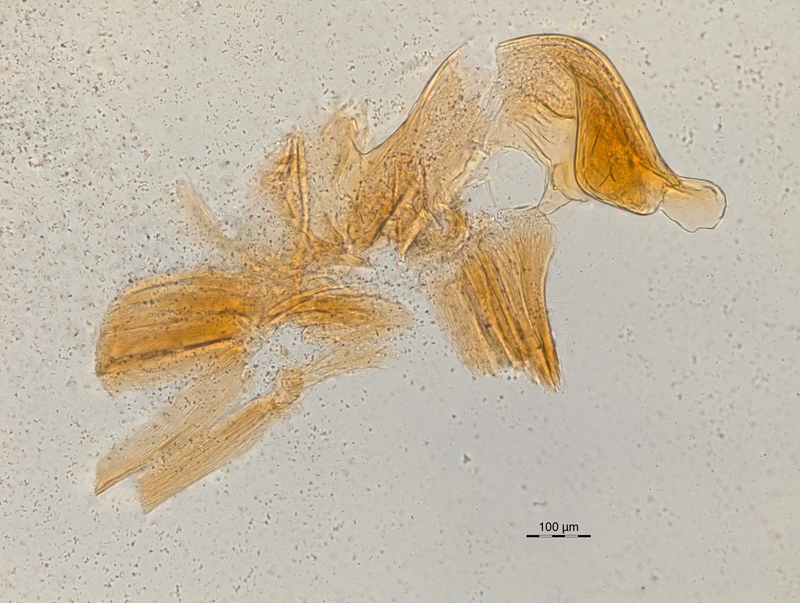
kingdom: Animalia
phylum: Arthropoda
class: Diplopoda
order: Chordeumatida
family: Craspedosomatidae
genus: Craspedosoma
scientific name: Craspedosoma rawlinsii
